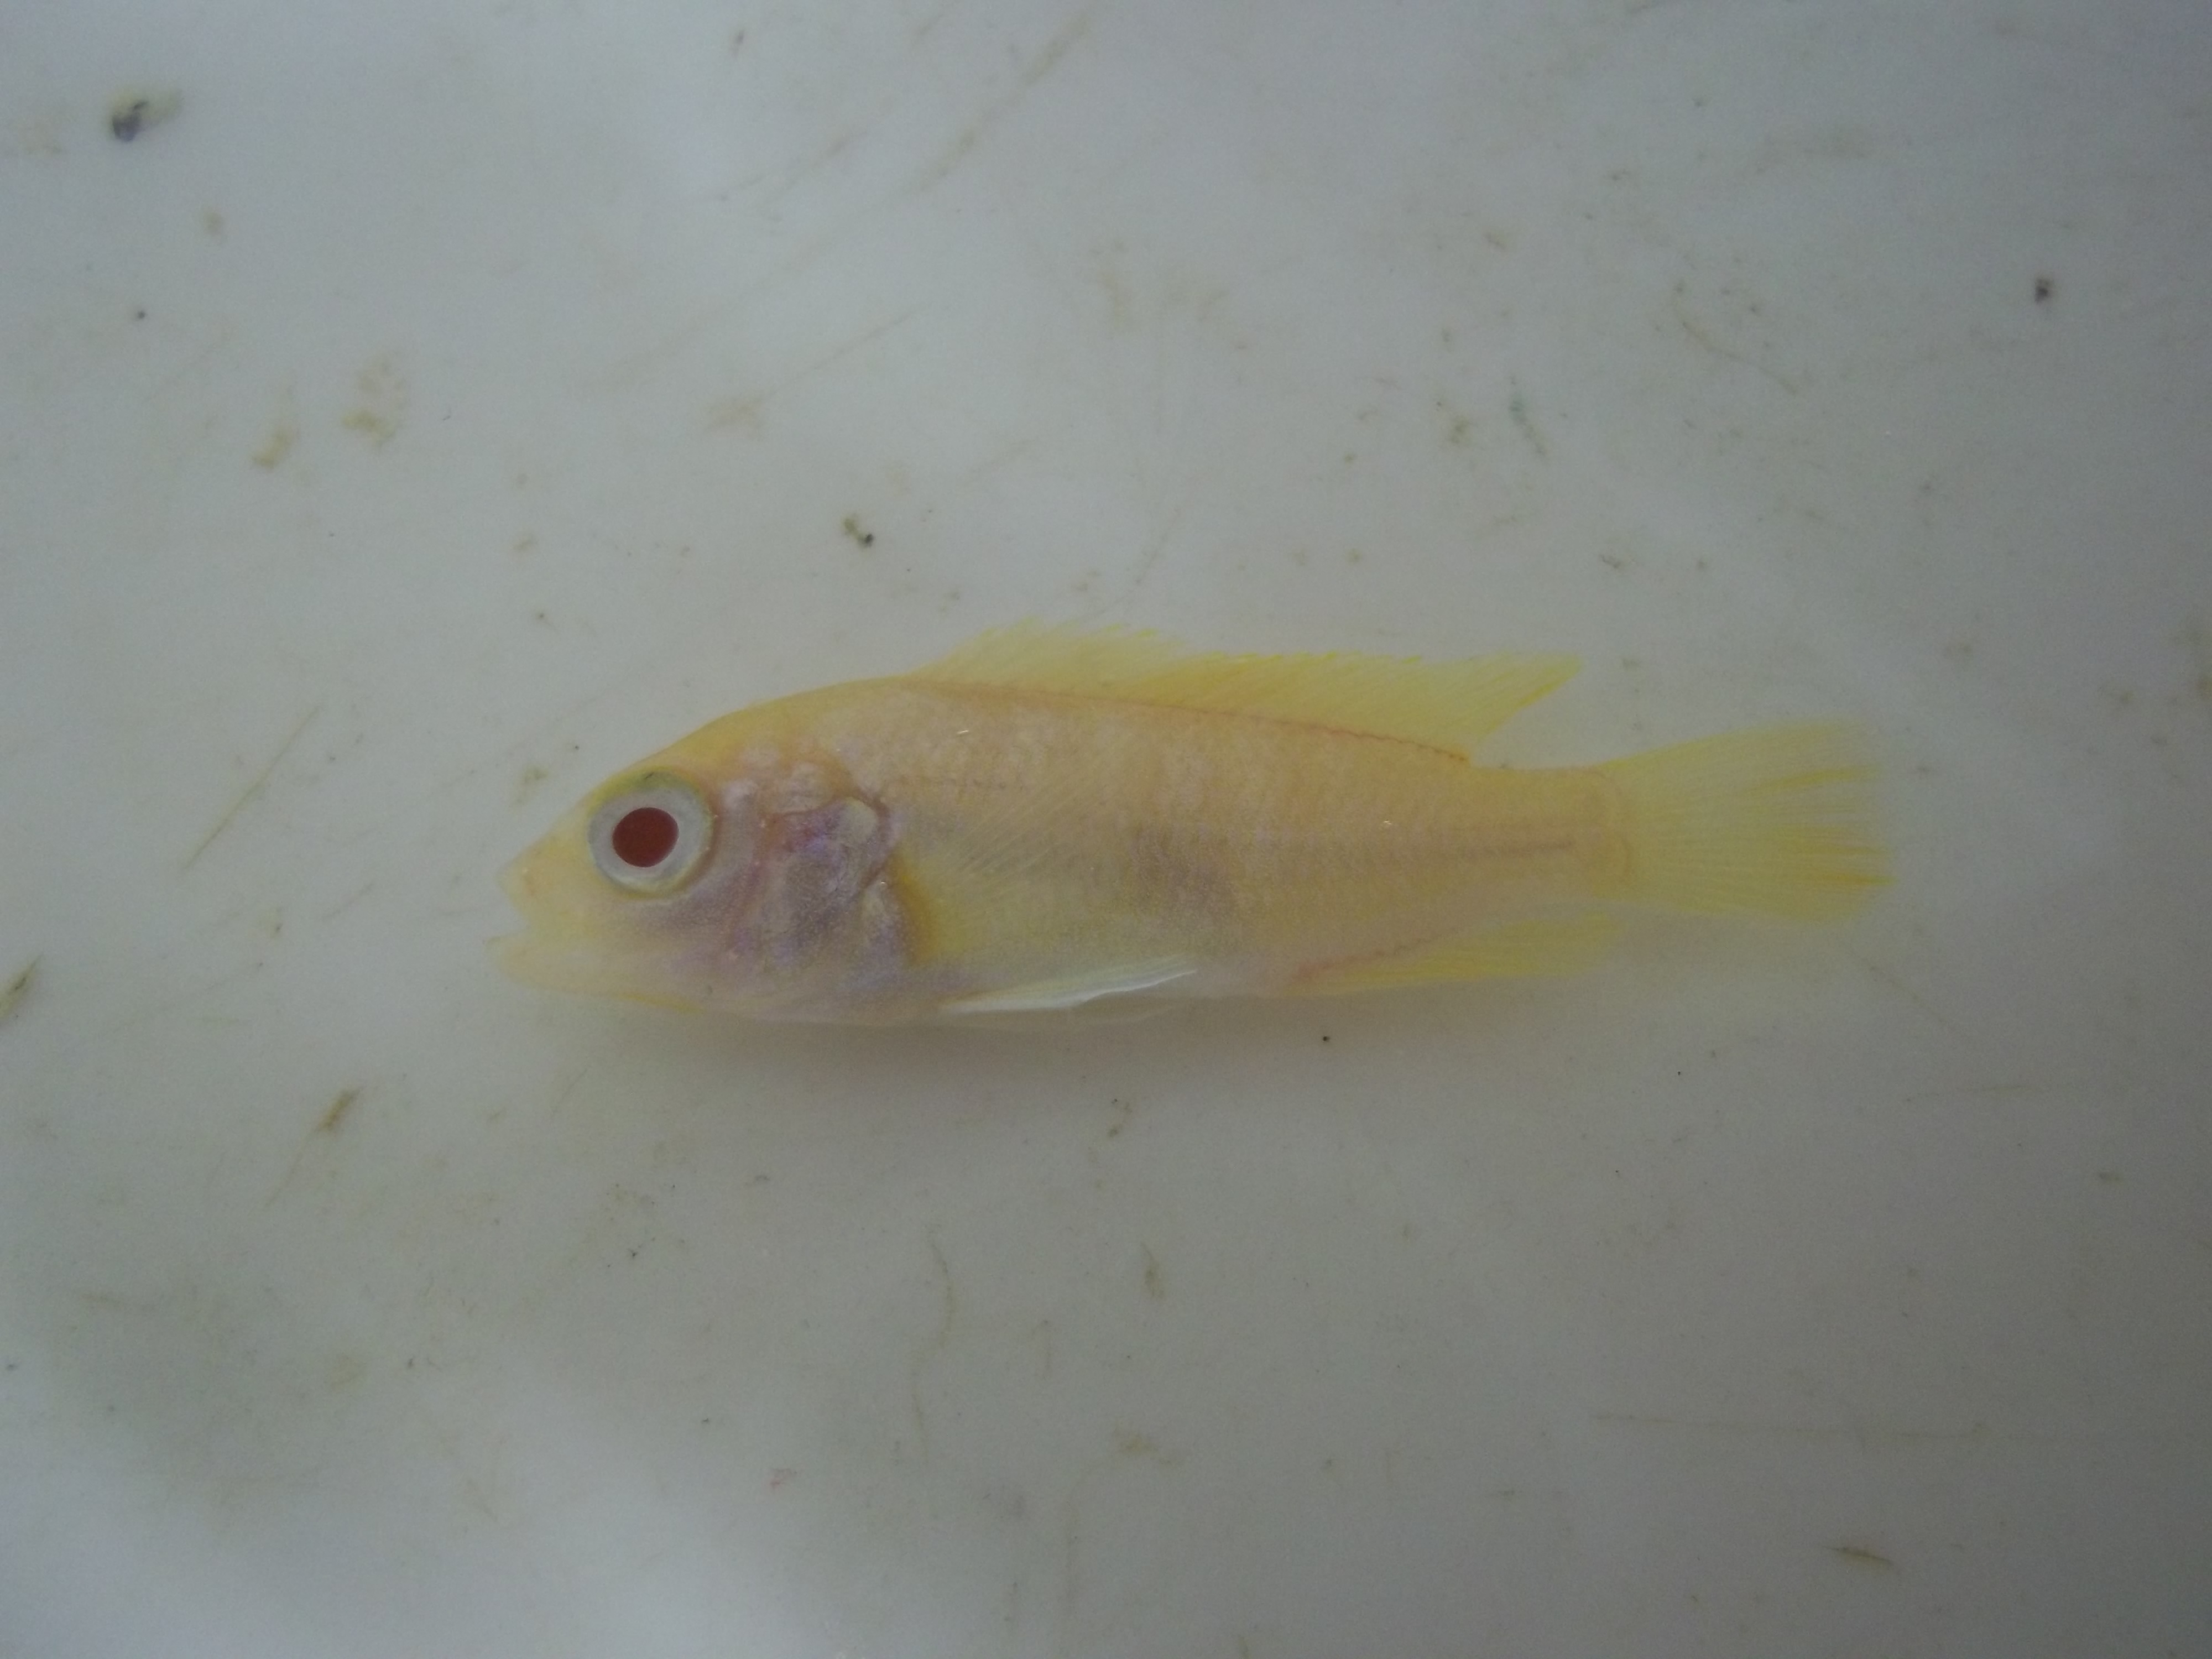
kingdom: Animalia
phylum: Chordata
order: Perciformes
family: Cichlidae
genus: Maylandia
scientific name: Maylandia zebra
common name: Zebra mbuna
